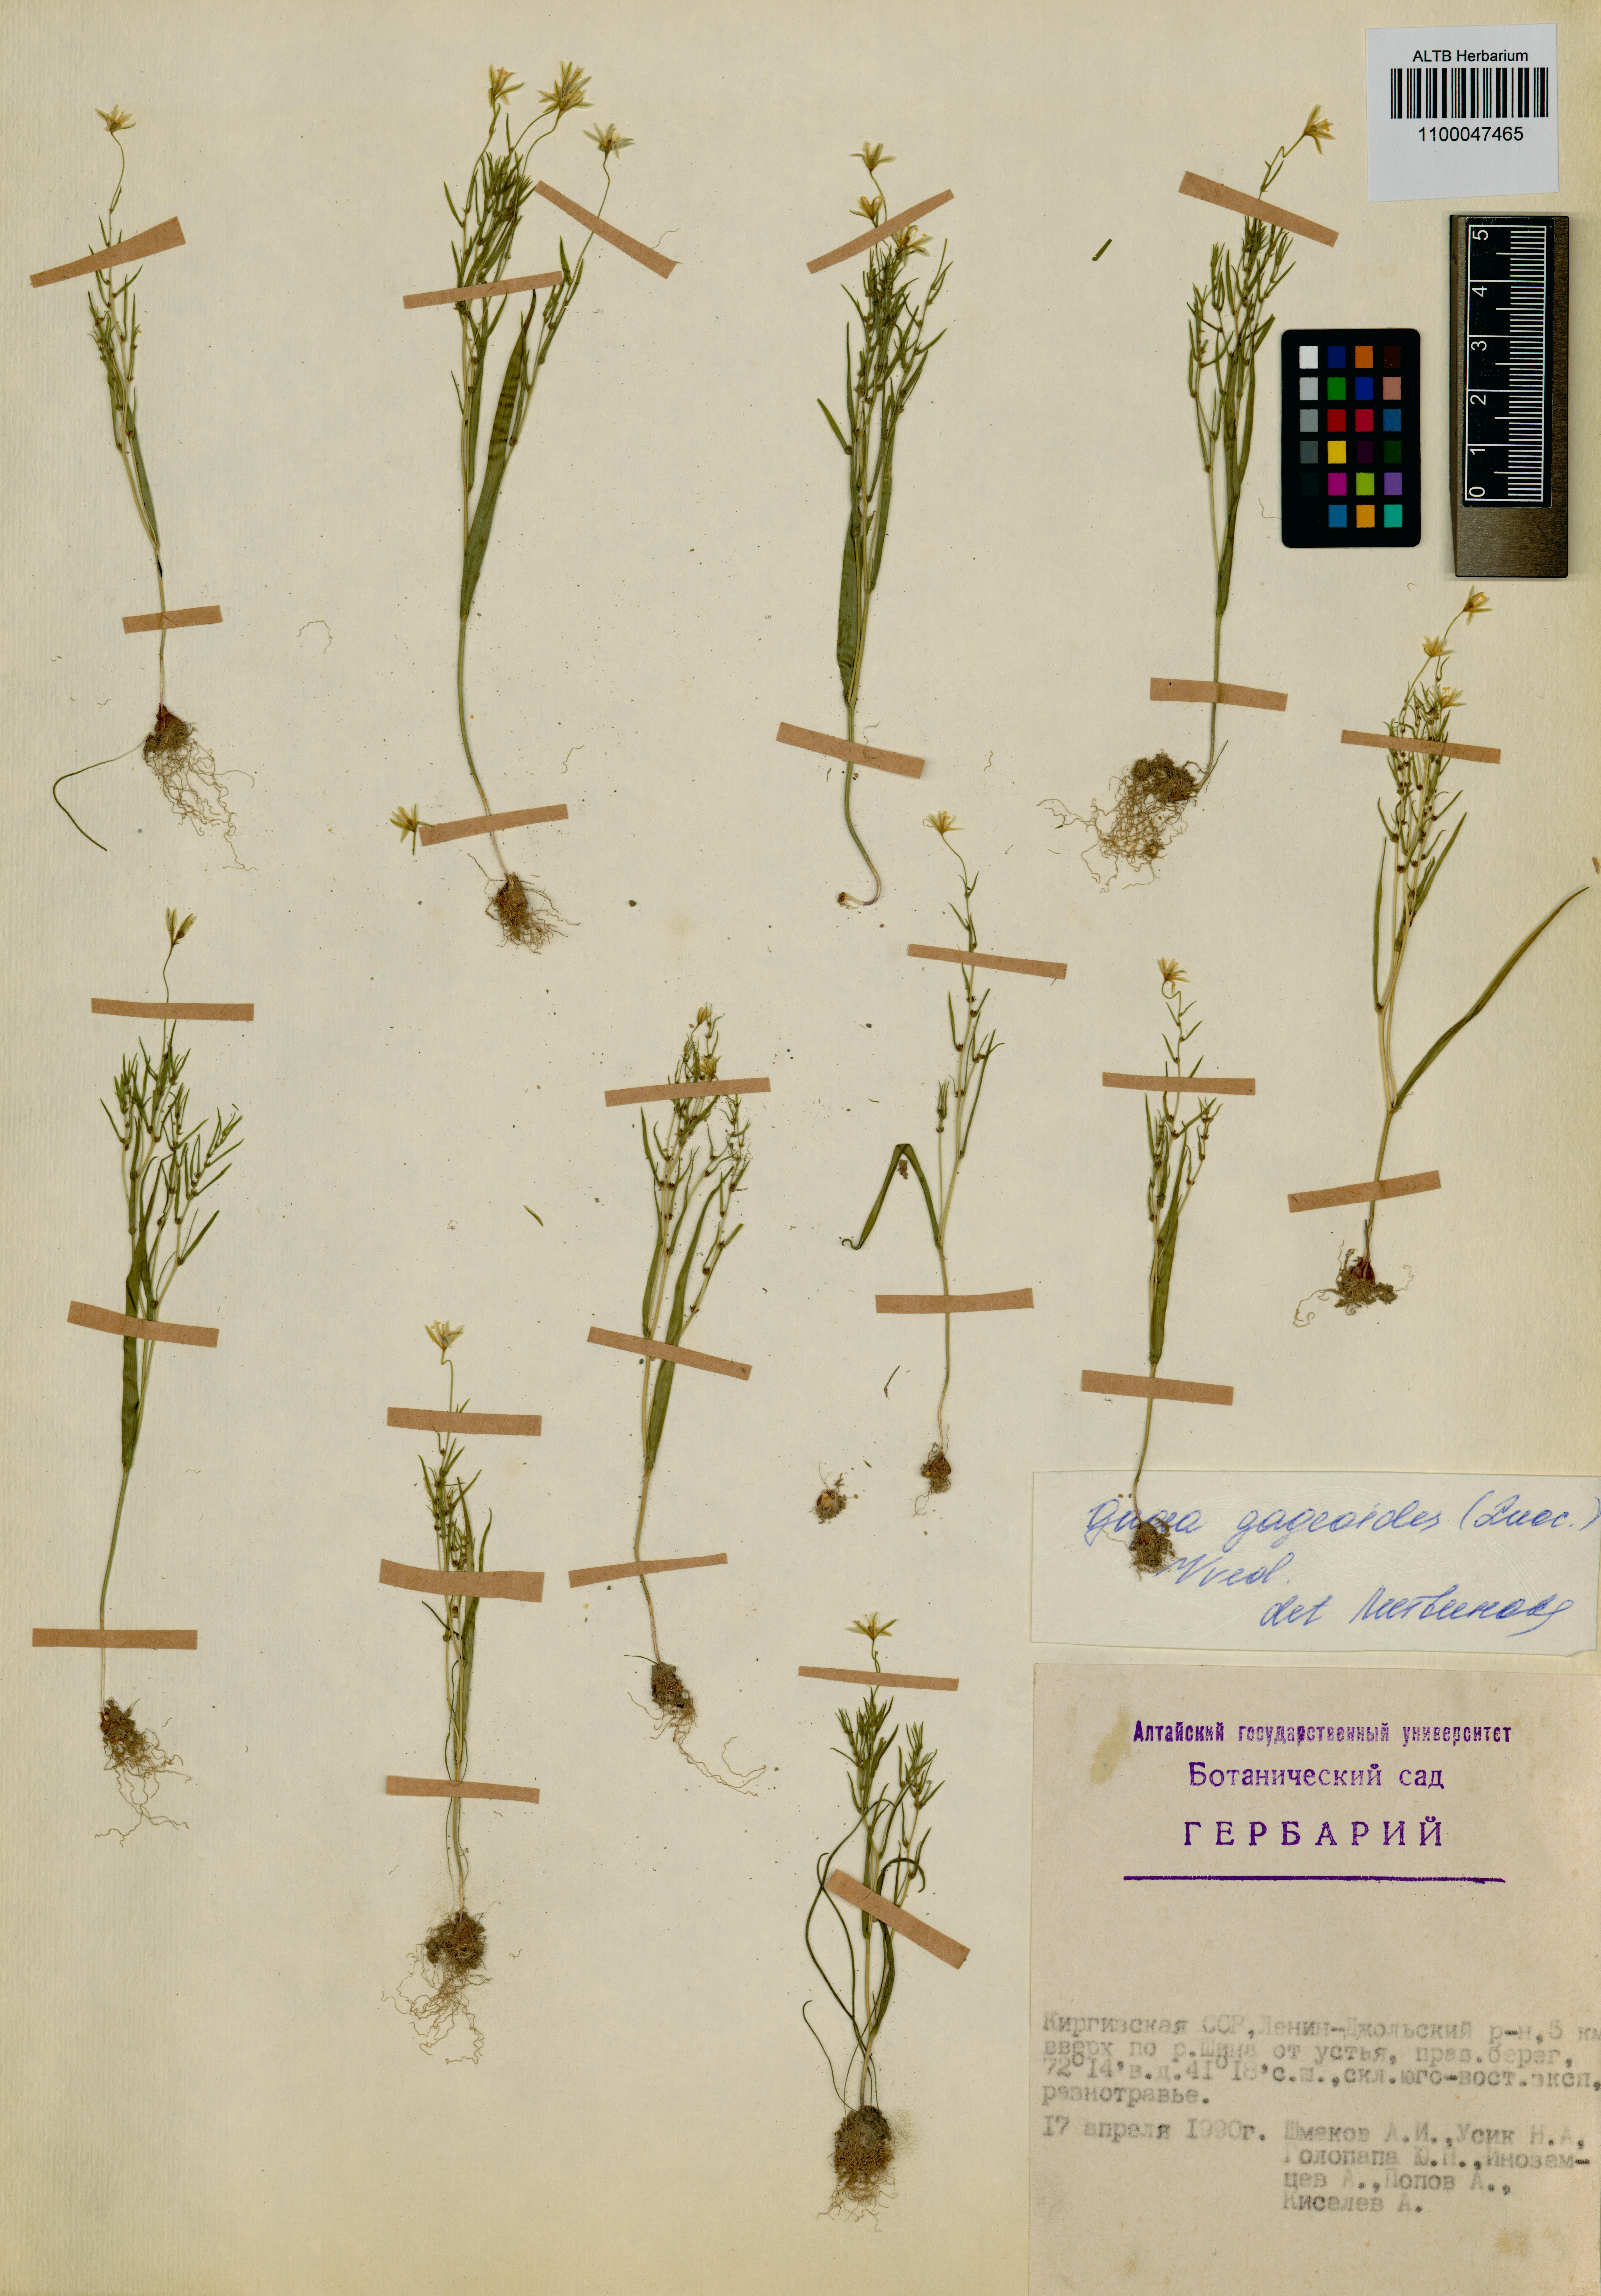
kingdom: Plantae
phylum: Tracheophyta
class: Liliopsida
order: Liliales
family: Liliaceae
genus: Gagea
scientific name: Gagea gageoides
